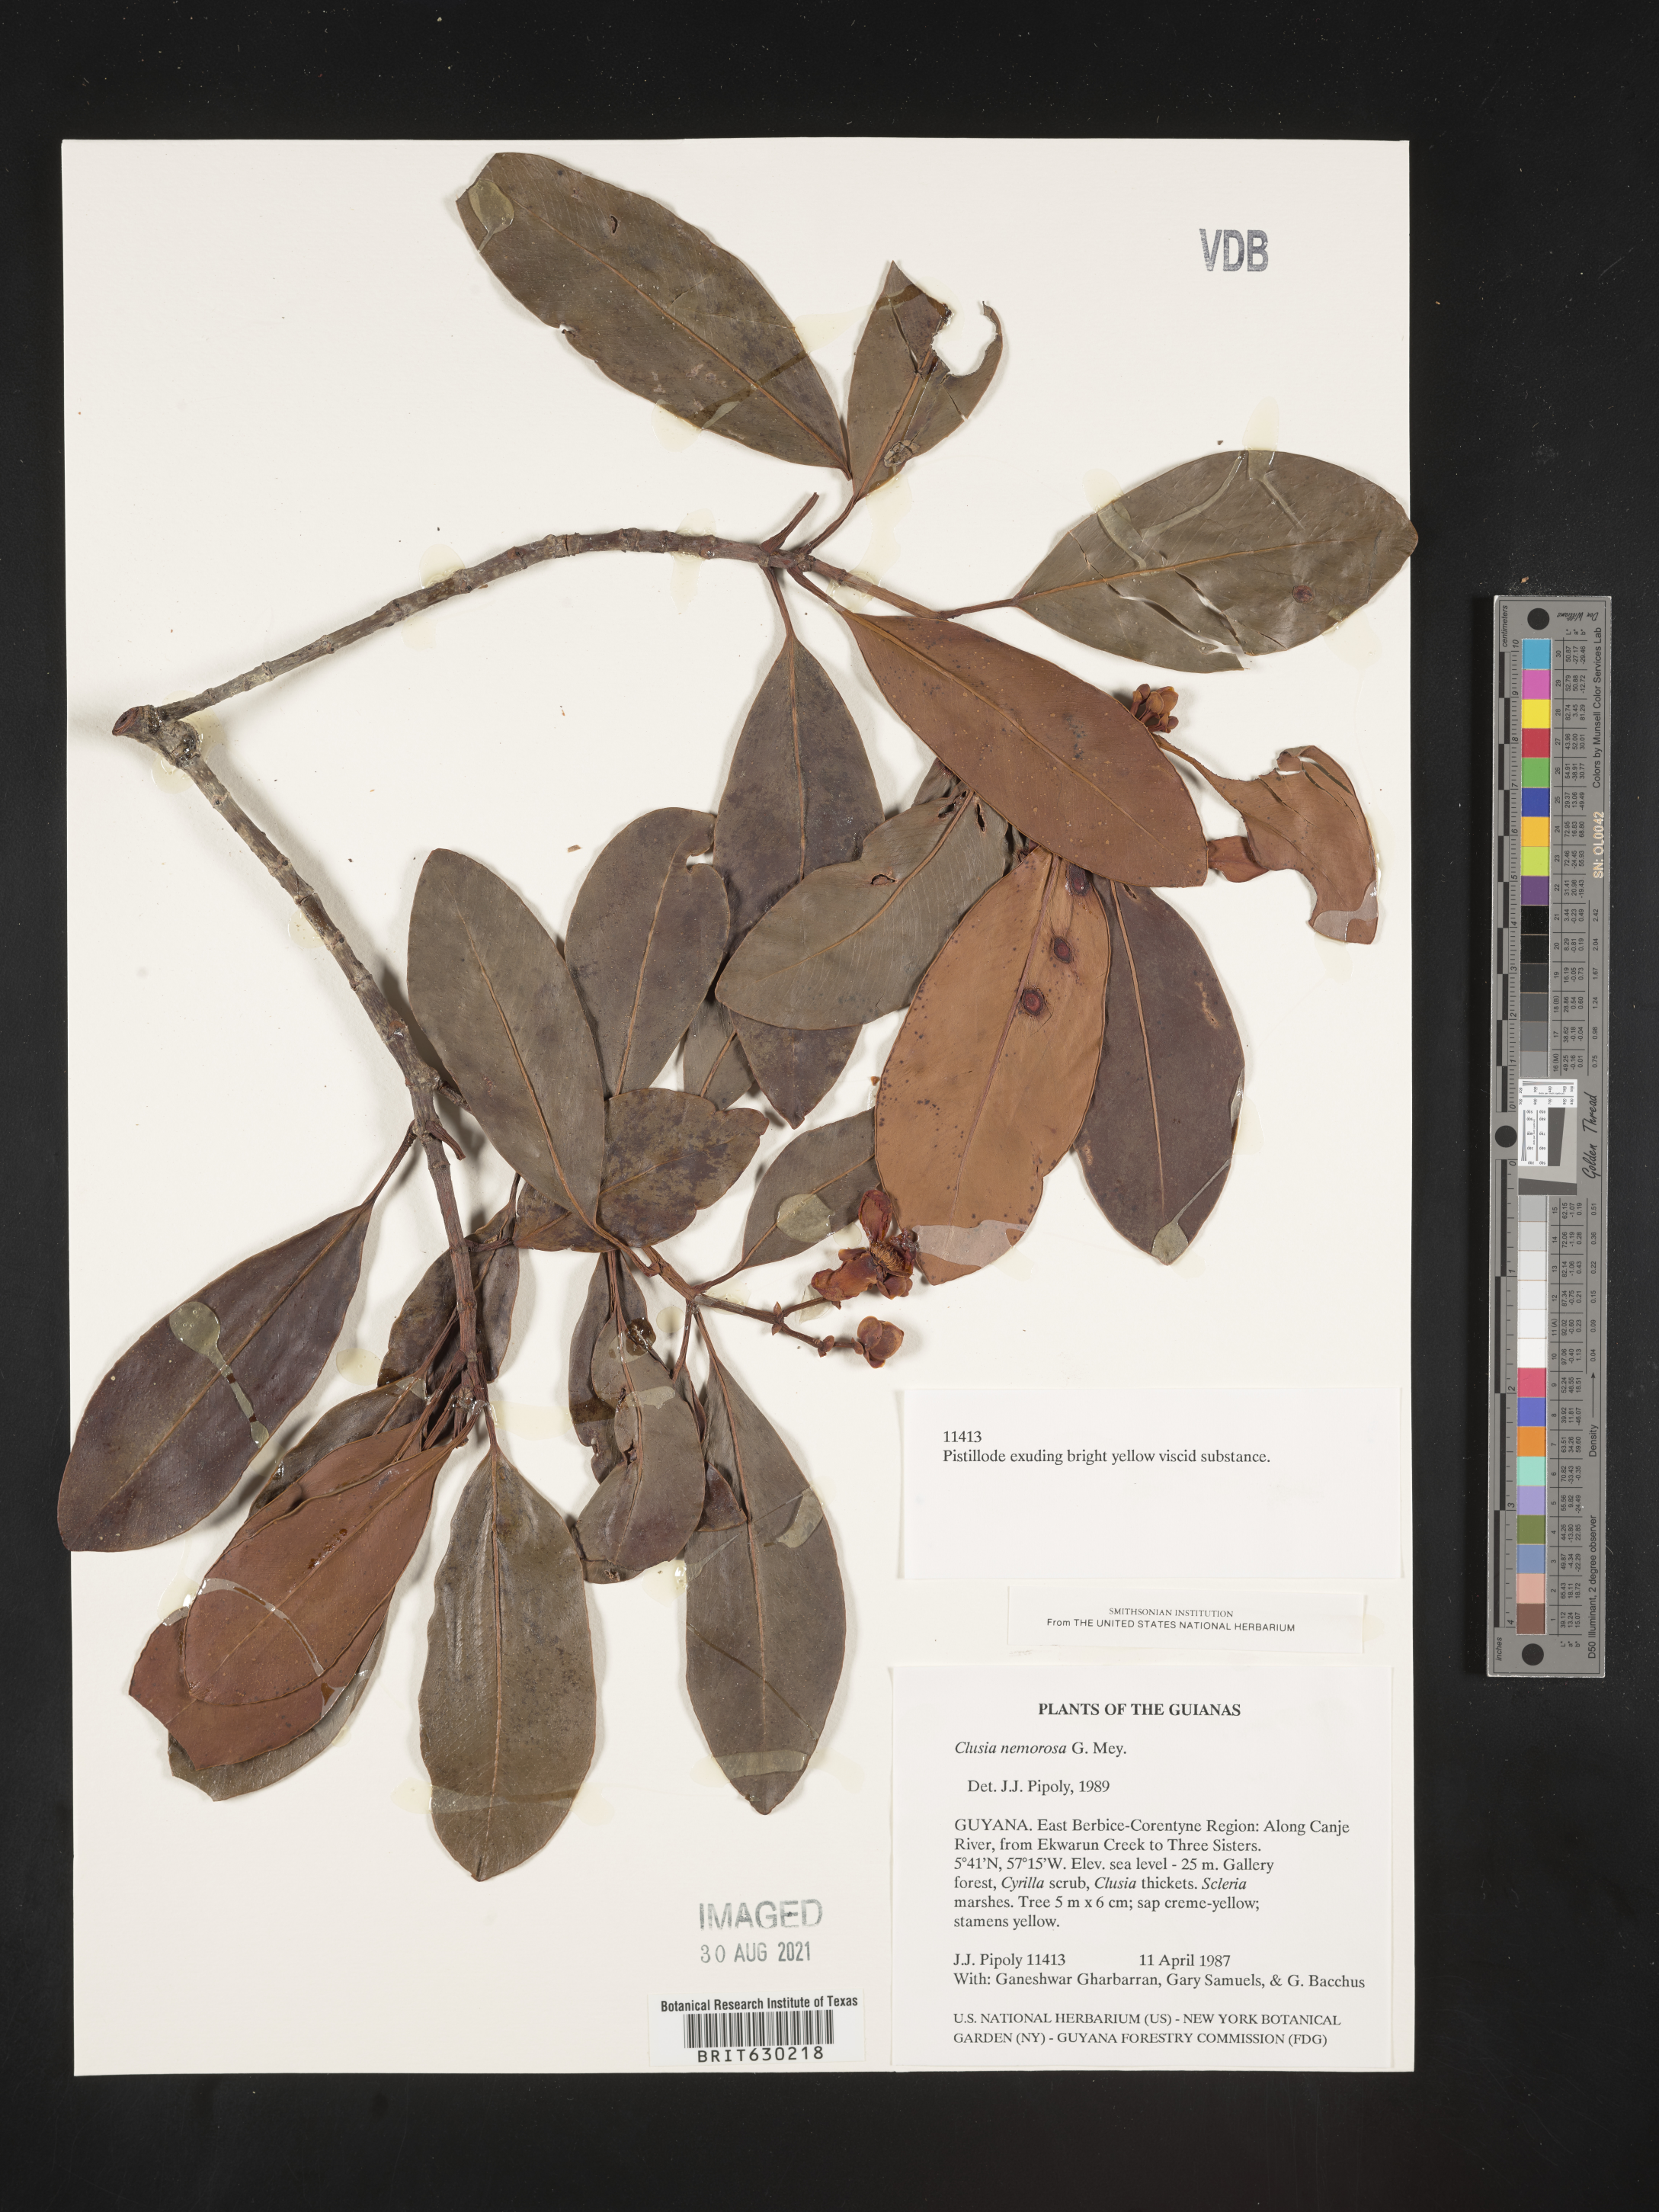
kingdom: Plantae
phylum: Tracheophyta
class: Magnoliopsida
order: Malpighiales
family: Clusiaceae
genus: Clusia
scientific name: Clusia nemorosa
